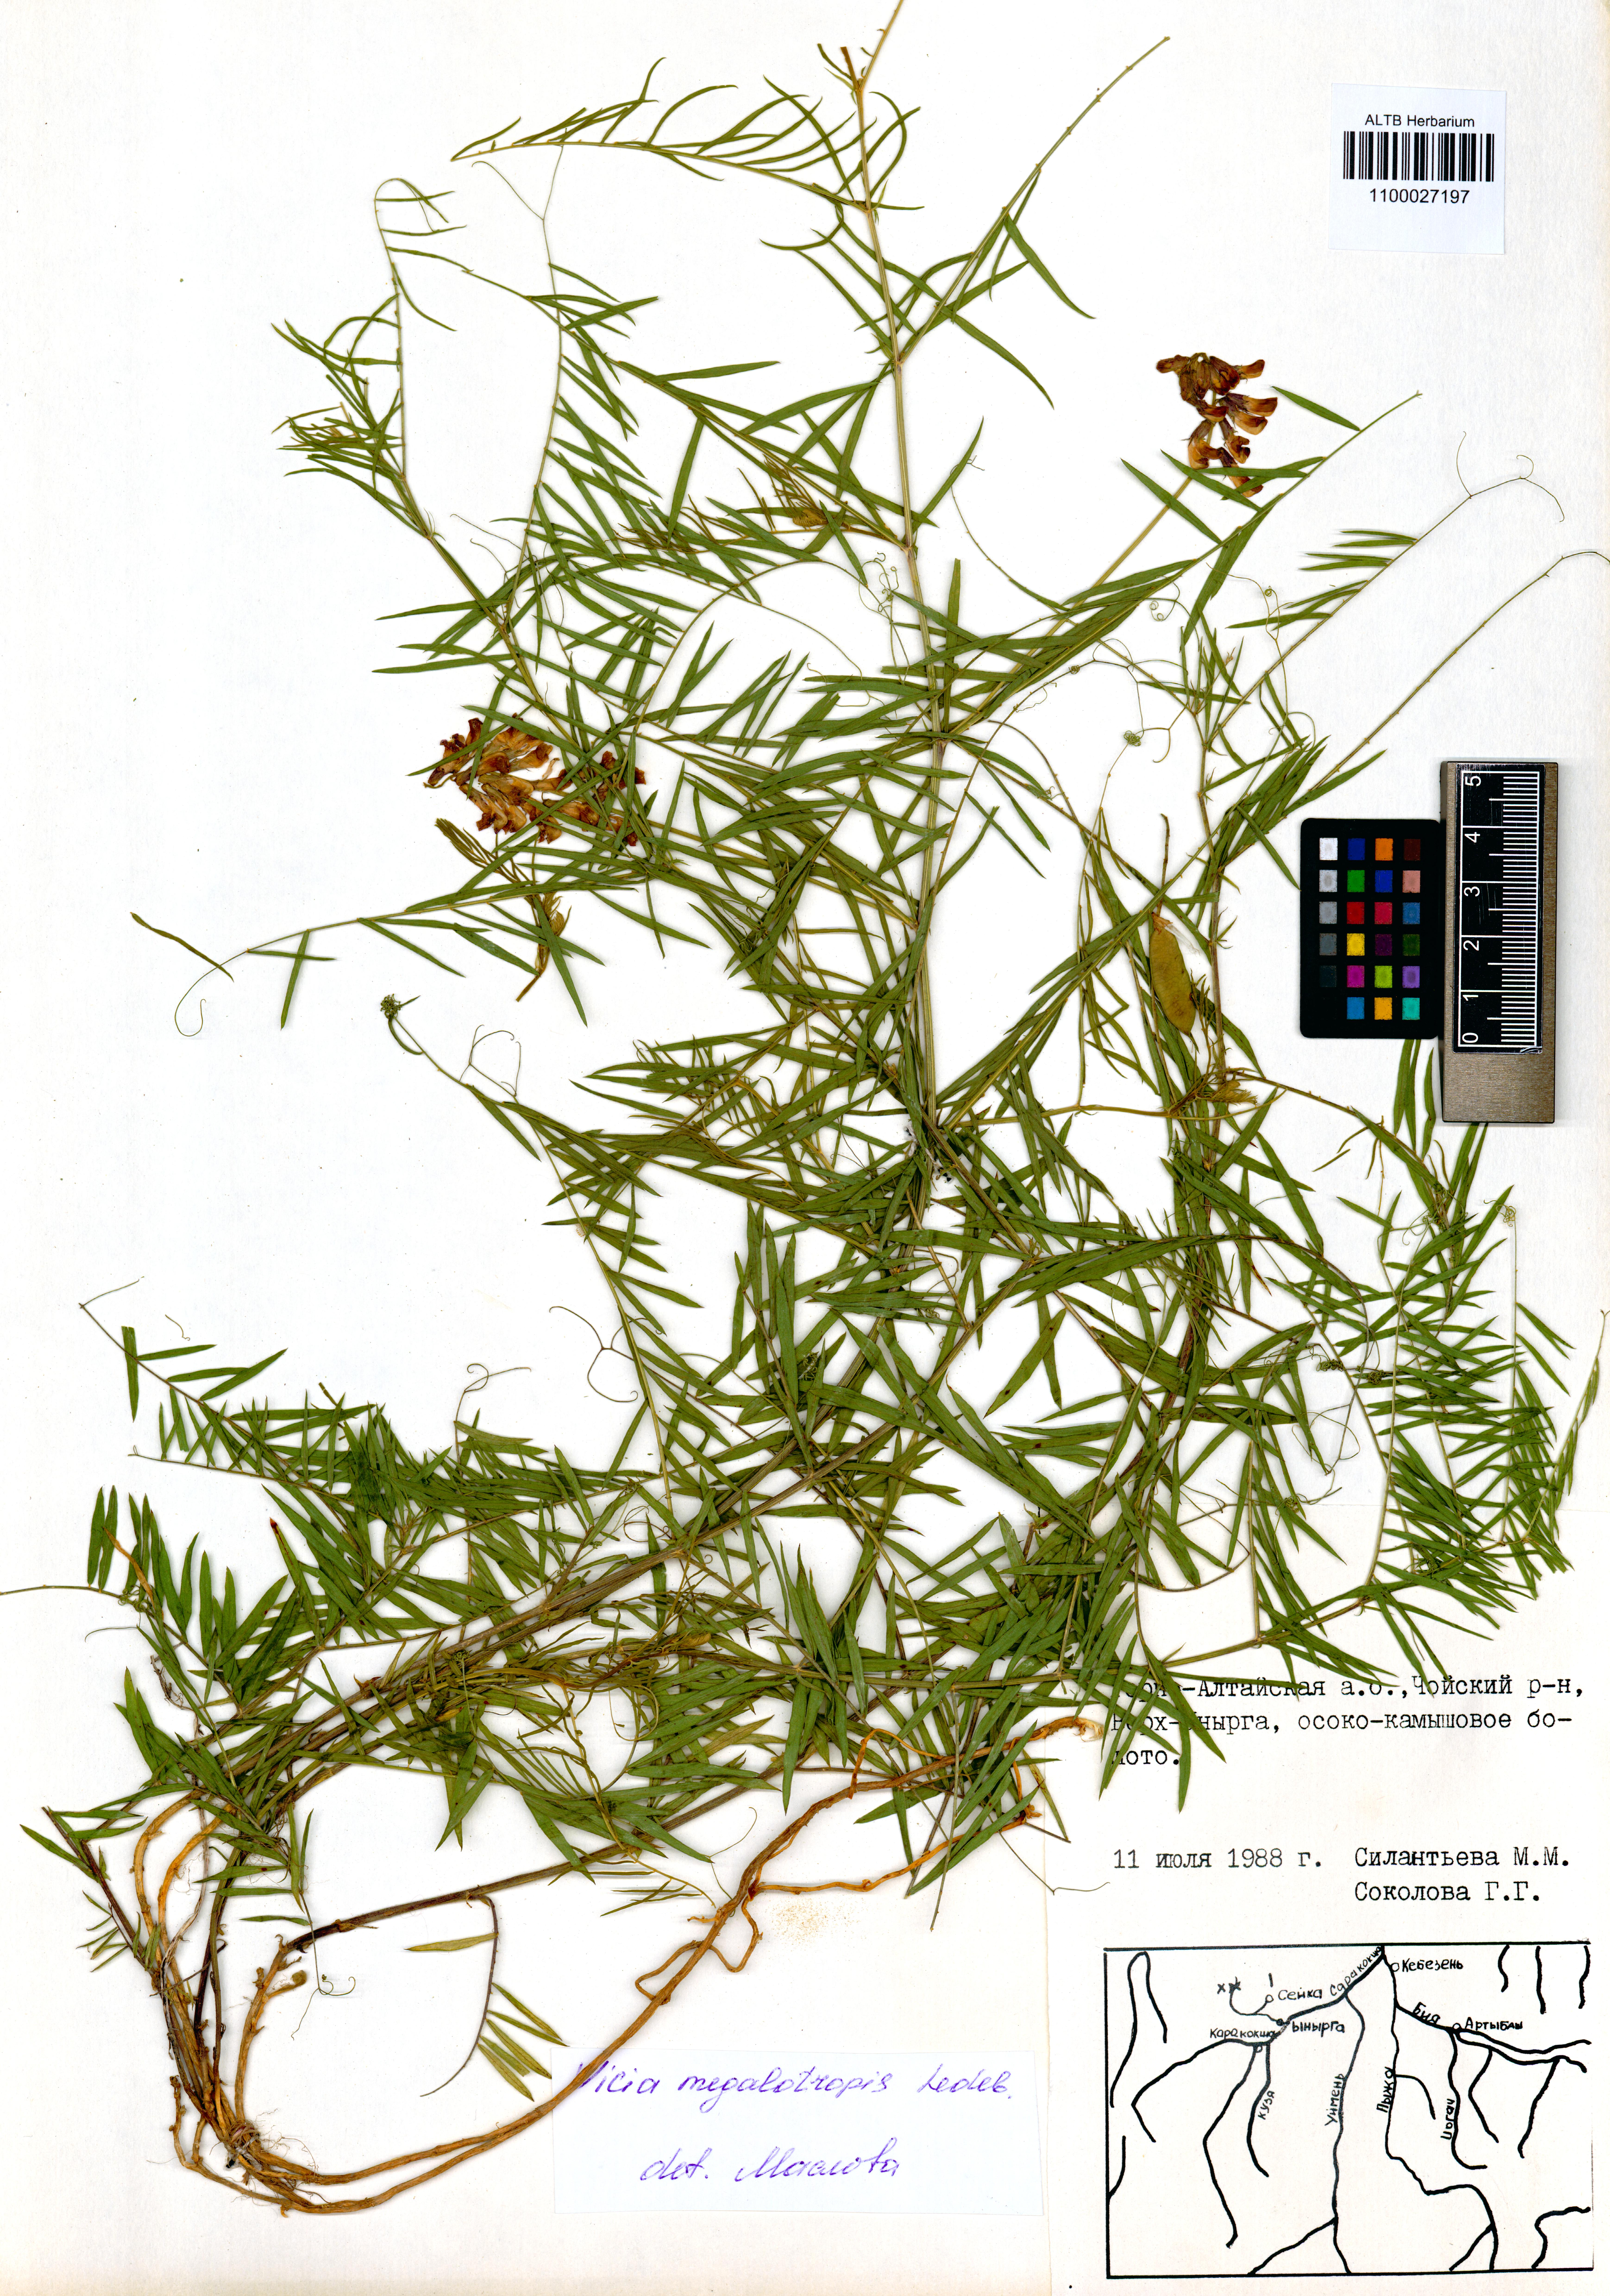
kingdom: Plantae
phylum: Tracheophyta
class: Magnoliopsida
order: Fabales
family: Fabaceae
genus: Vicia
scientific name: Vicia megalotropis
